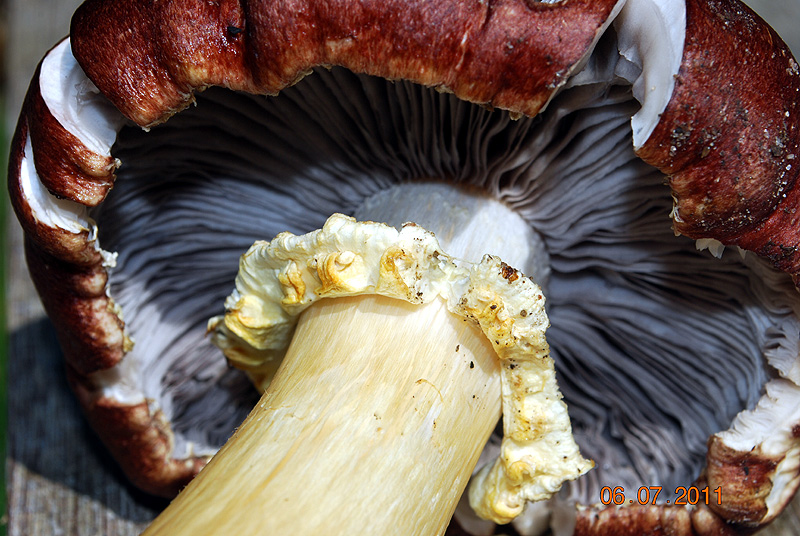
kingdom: Fungi
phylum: Basidiomycota
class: Agaricomycetes
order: Agaricales
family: Strophariaceae
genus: Stropharia
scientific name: Stropharia rugosoannulata
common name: rødbrun bredblad
